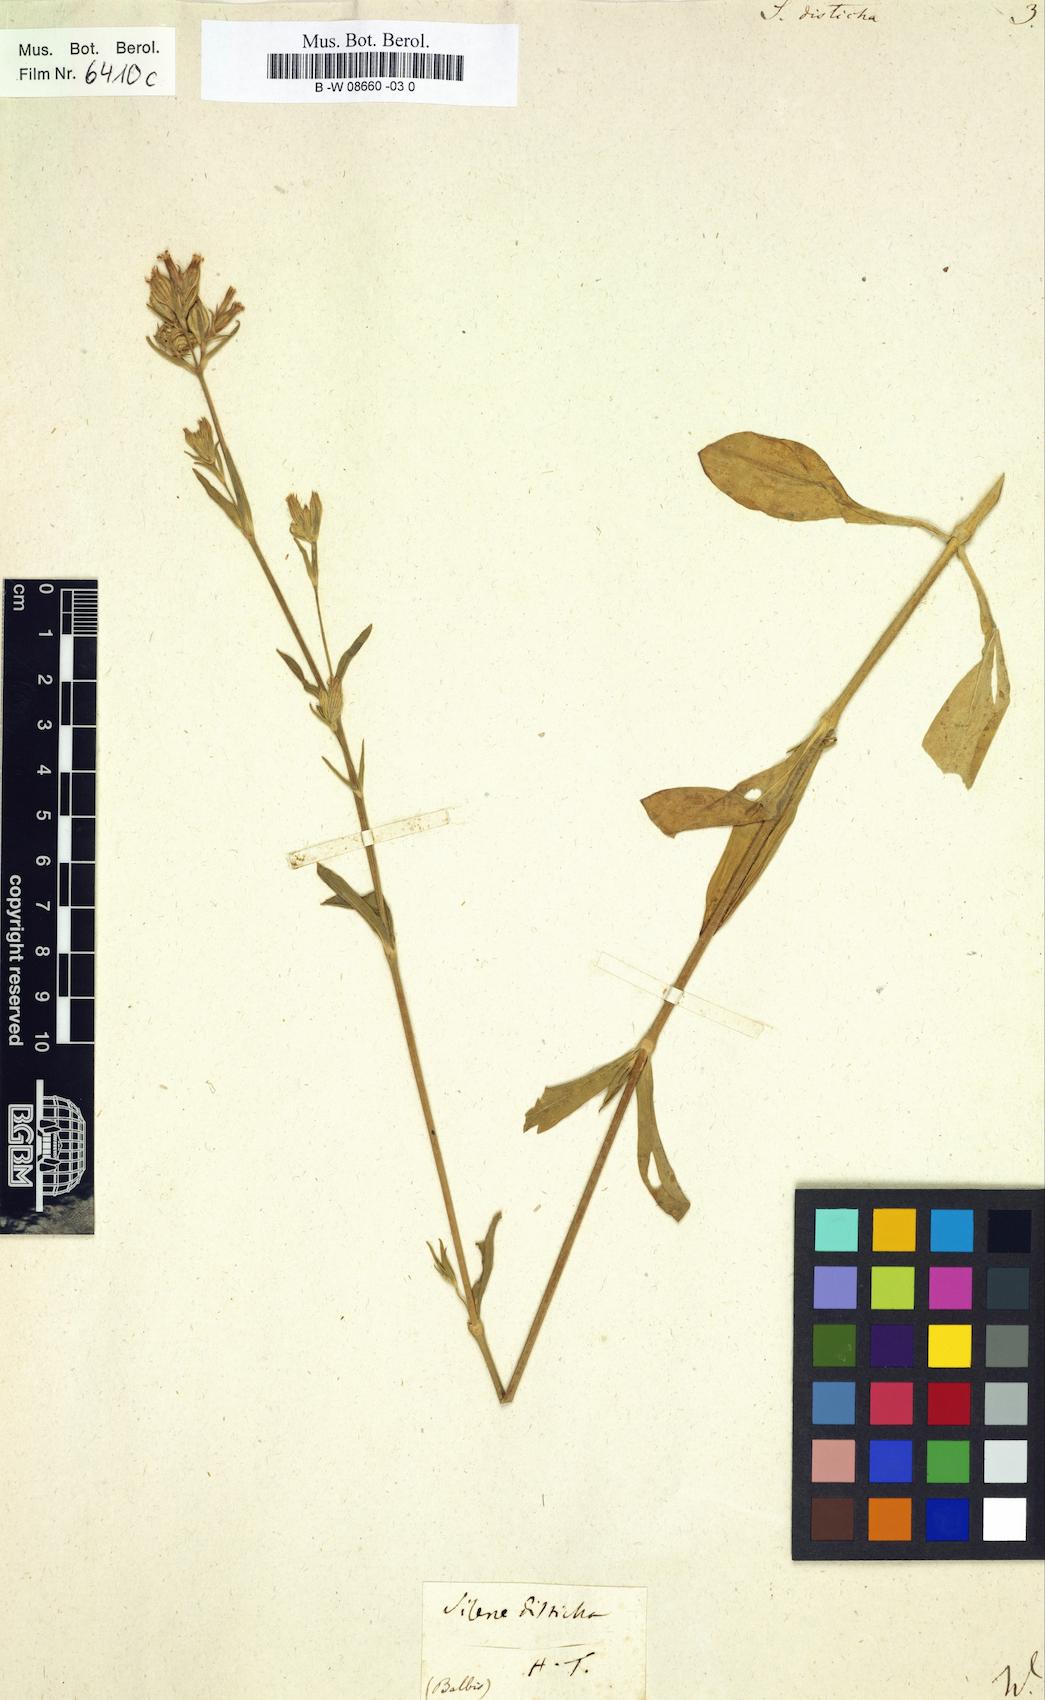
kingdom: Plantae
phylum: Tracheophyta
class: Magnoliopsida
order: Caryophyllales
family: Caryophyllaceae
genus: Silene
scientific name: Silene disticha
